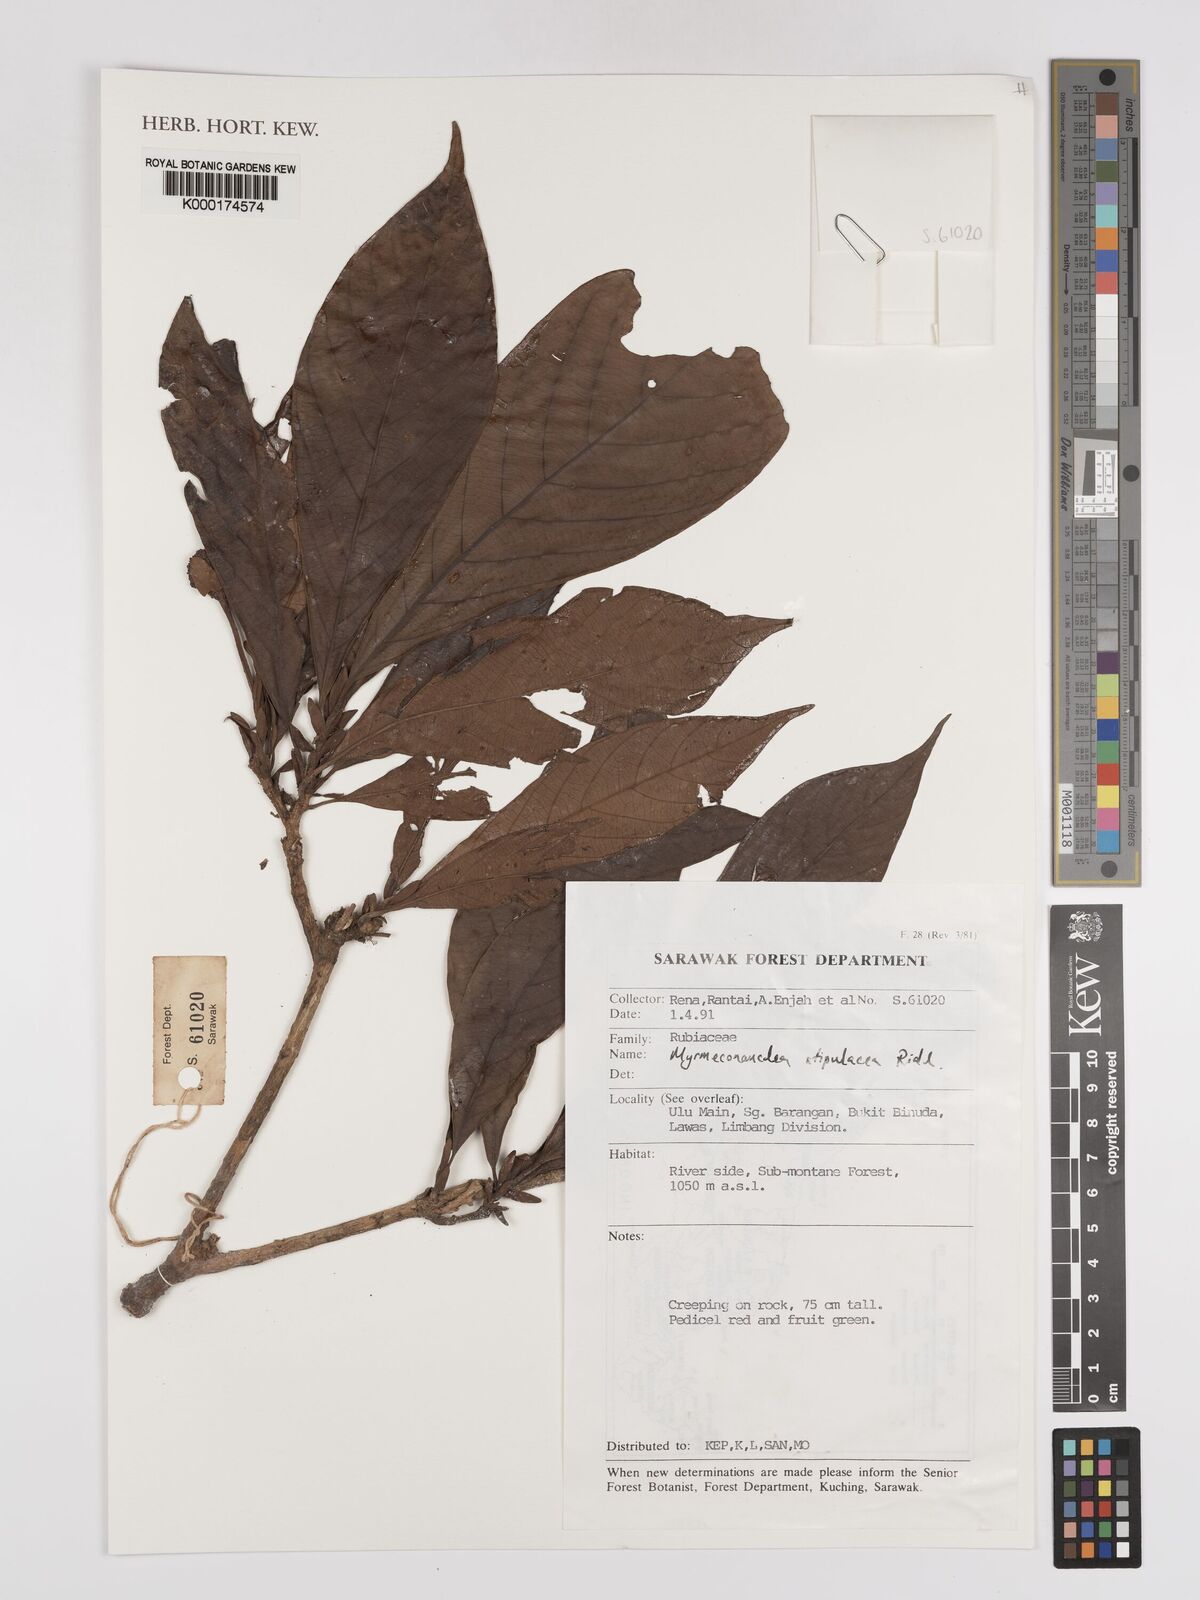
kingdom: Plantae
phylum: Tracheophyta
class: Magnoliopsida
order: Gentianales
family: Rubiaceae
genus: Myrmeconauclea
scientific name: Myrmeconauclea stipulacea
